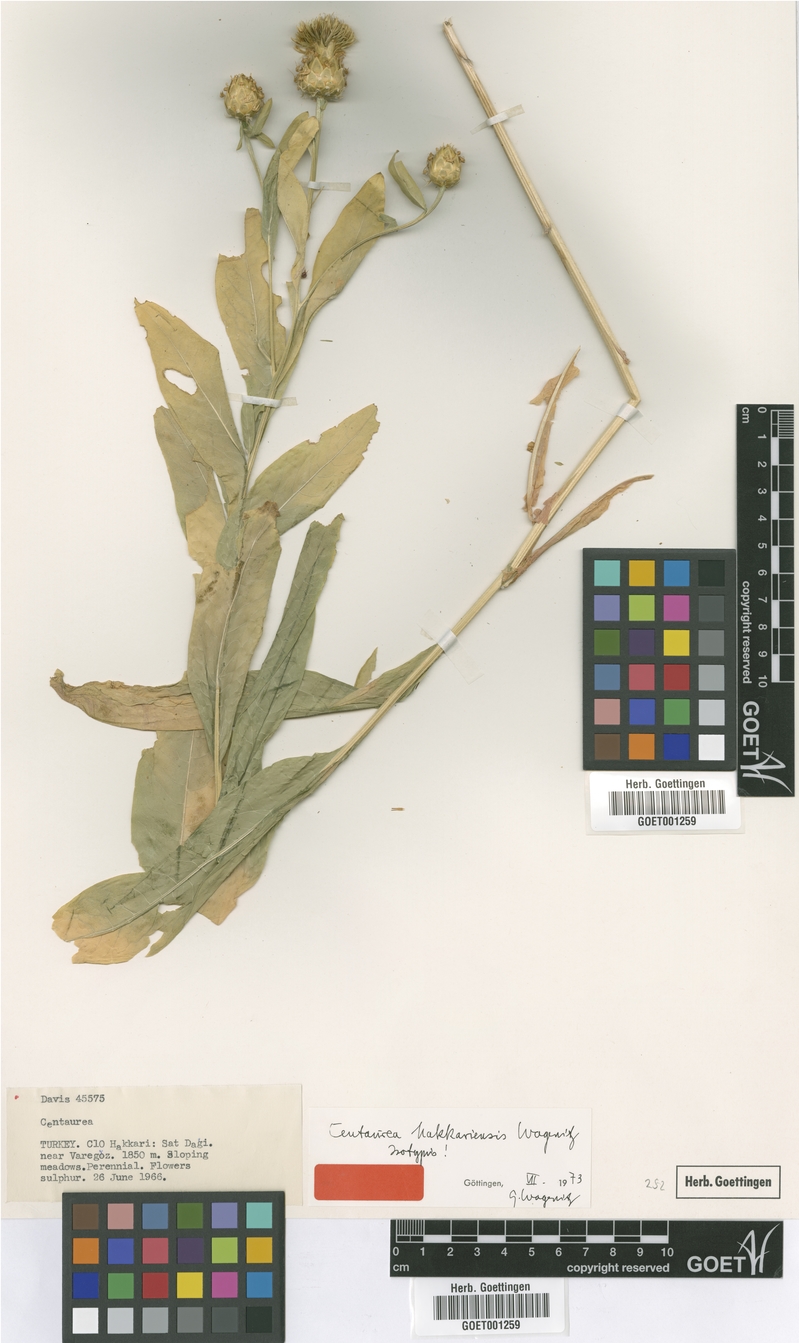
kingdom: Plantae
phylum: Tracheophyta
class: Magnoliopsida
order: Asterales
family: Asteraceae
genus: Centaurea
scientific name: Centaurea hakkariensis
